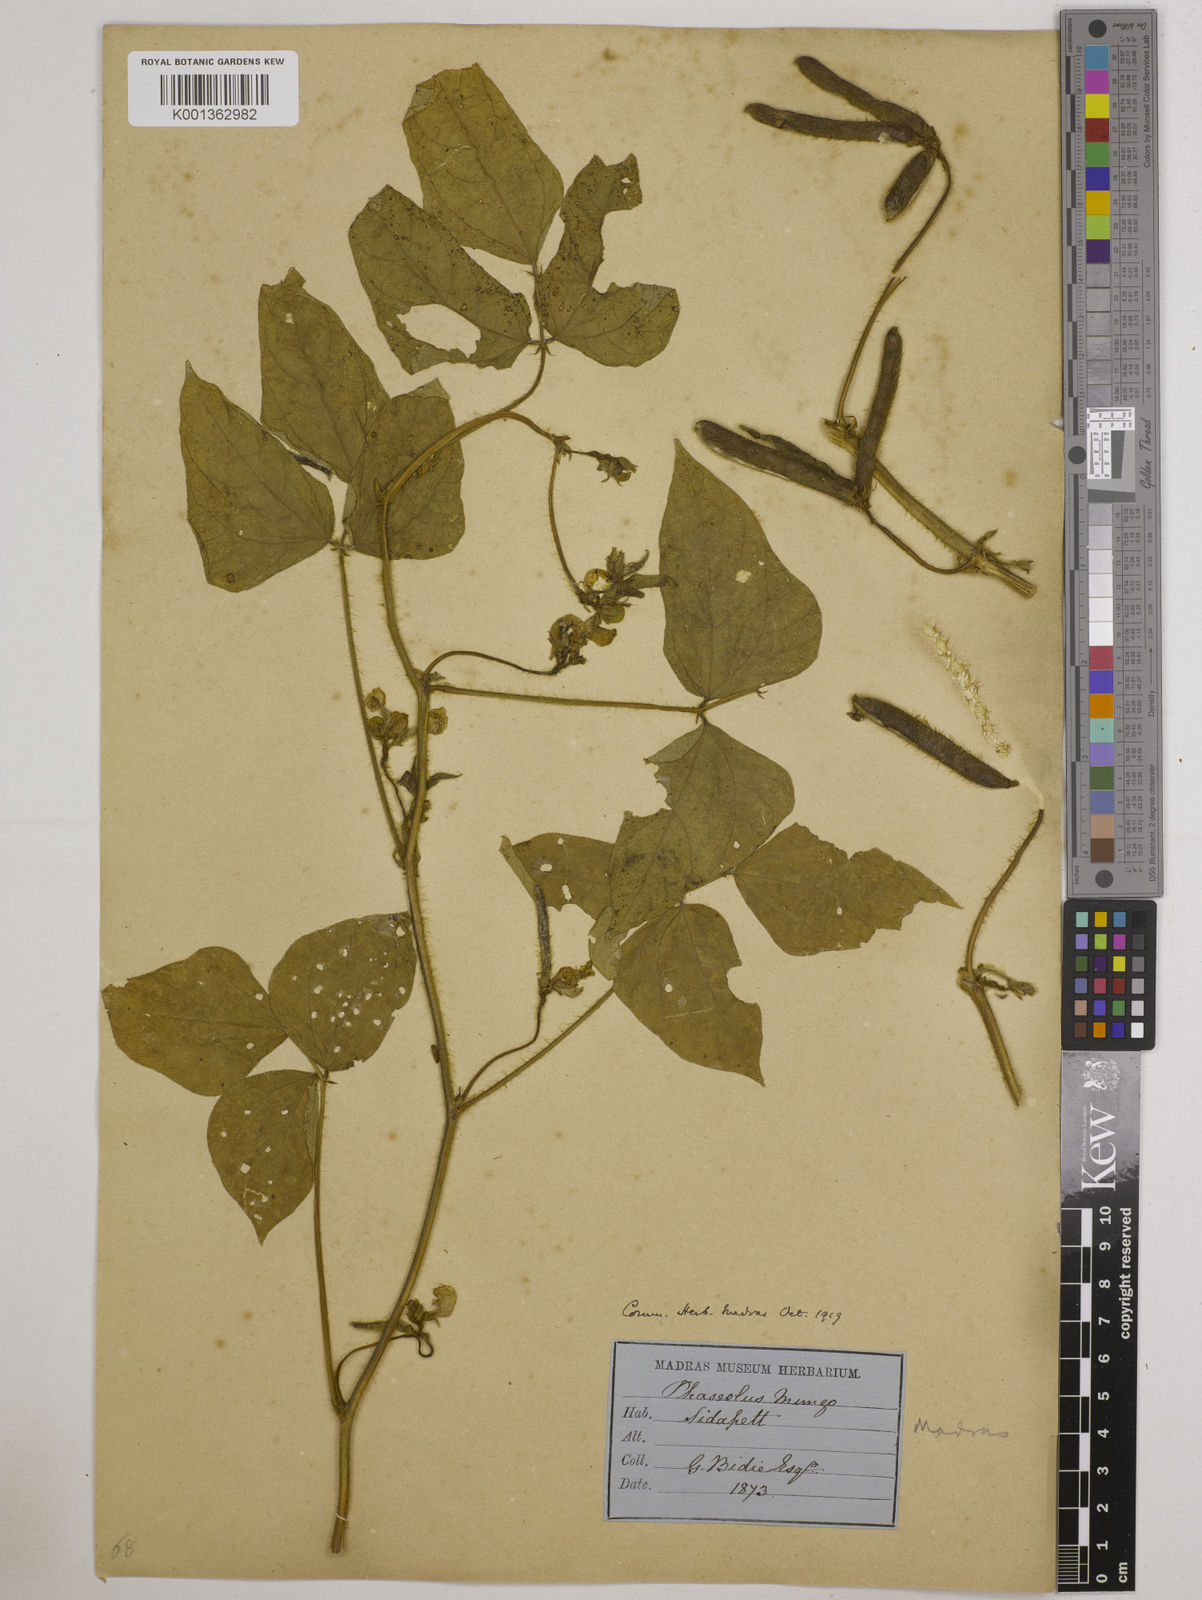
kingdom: Plantae
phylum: Tracheophyta
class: Magnoliopsida
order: Fabales
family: Fabaceae
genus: Vigna
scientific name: Vigna mungo
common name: Black gram
